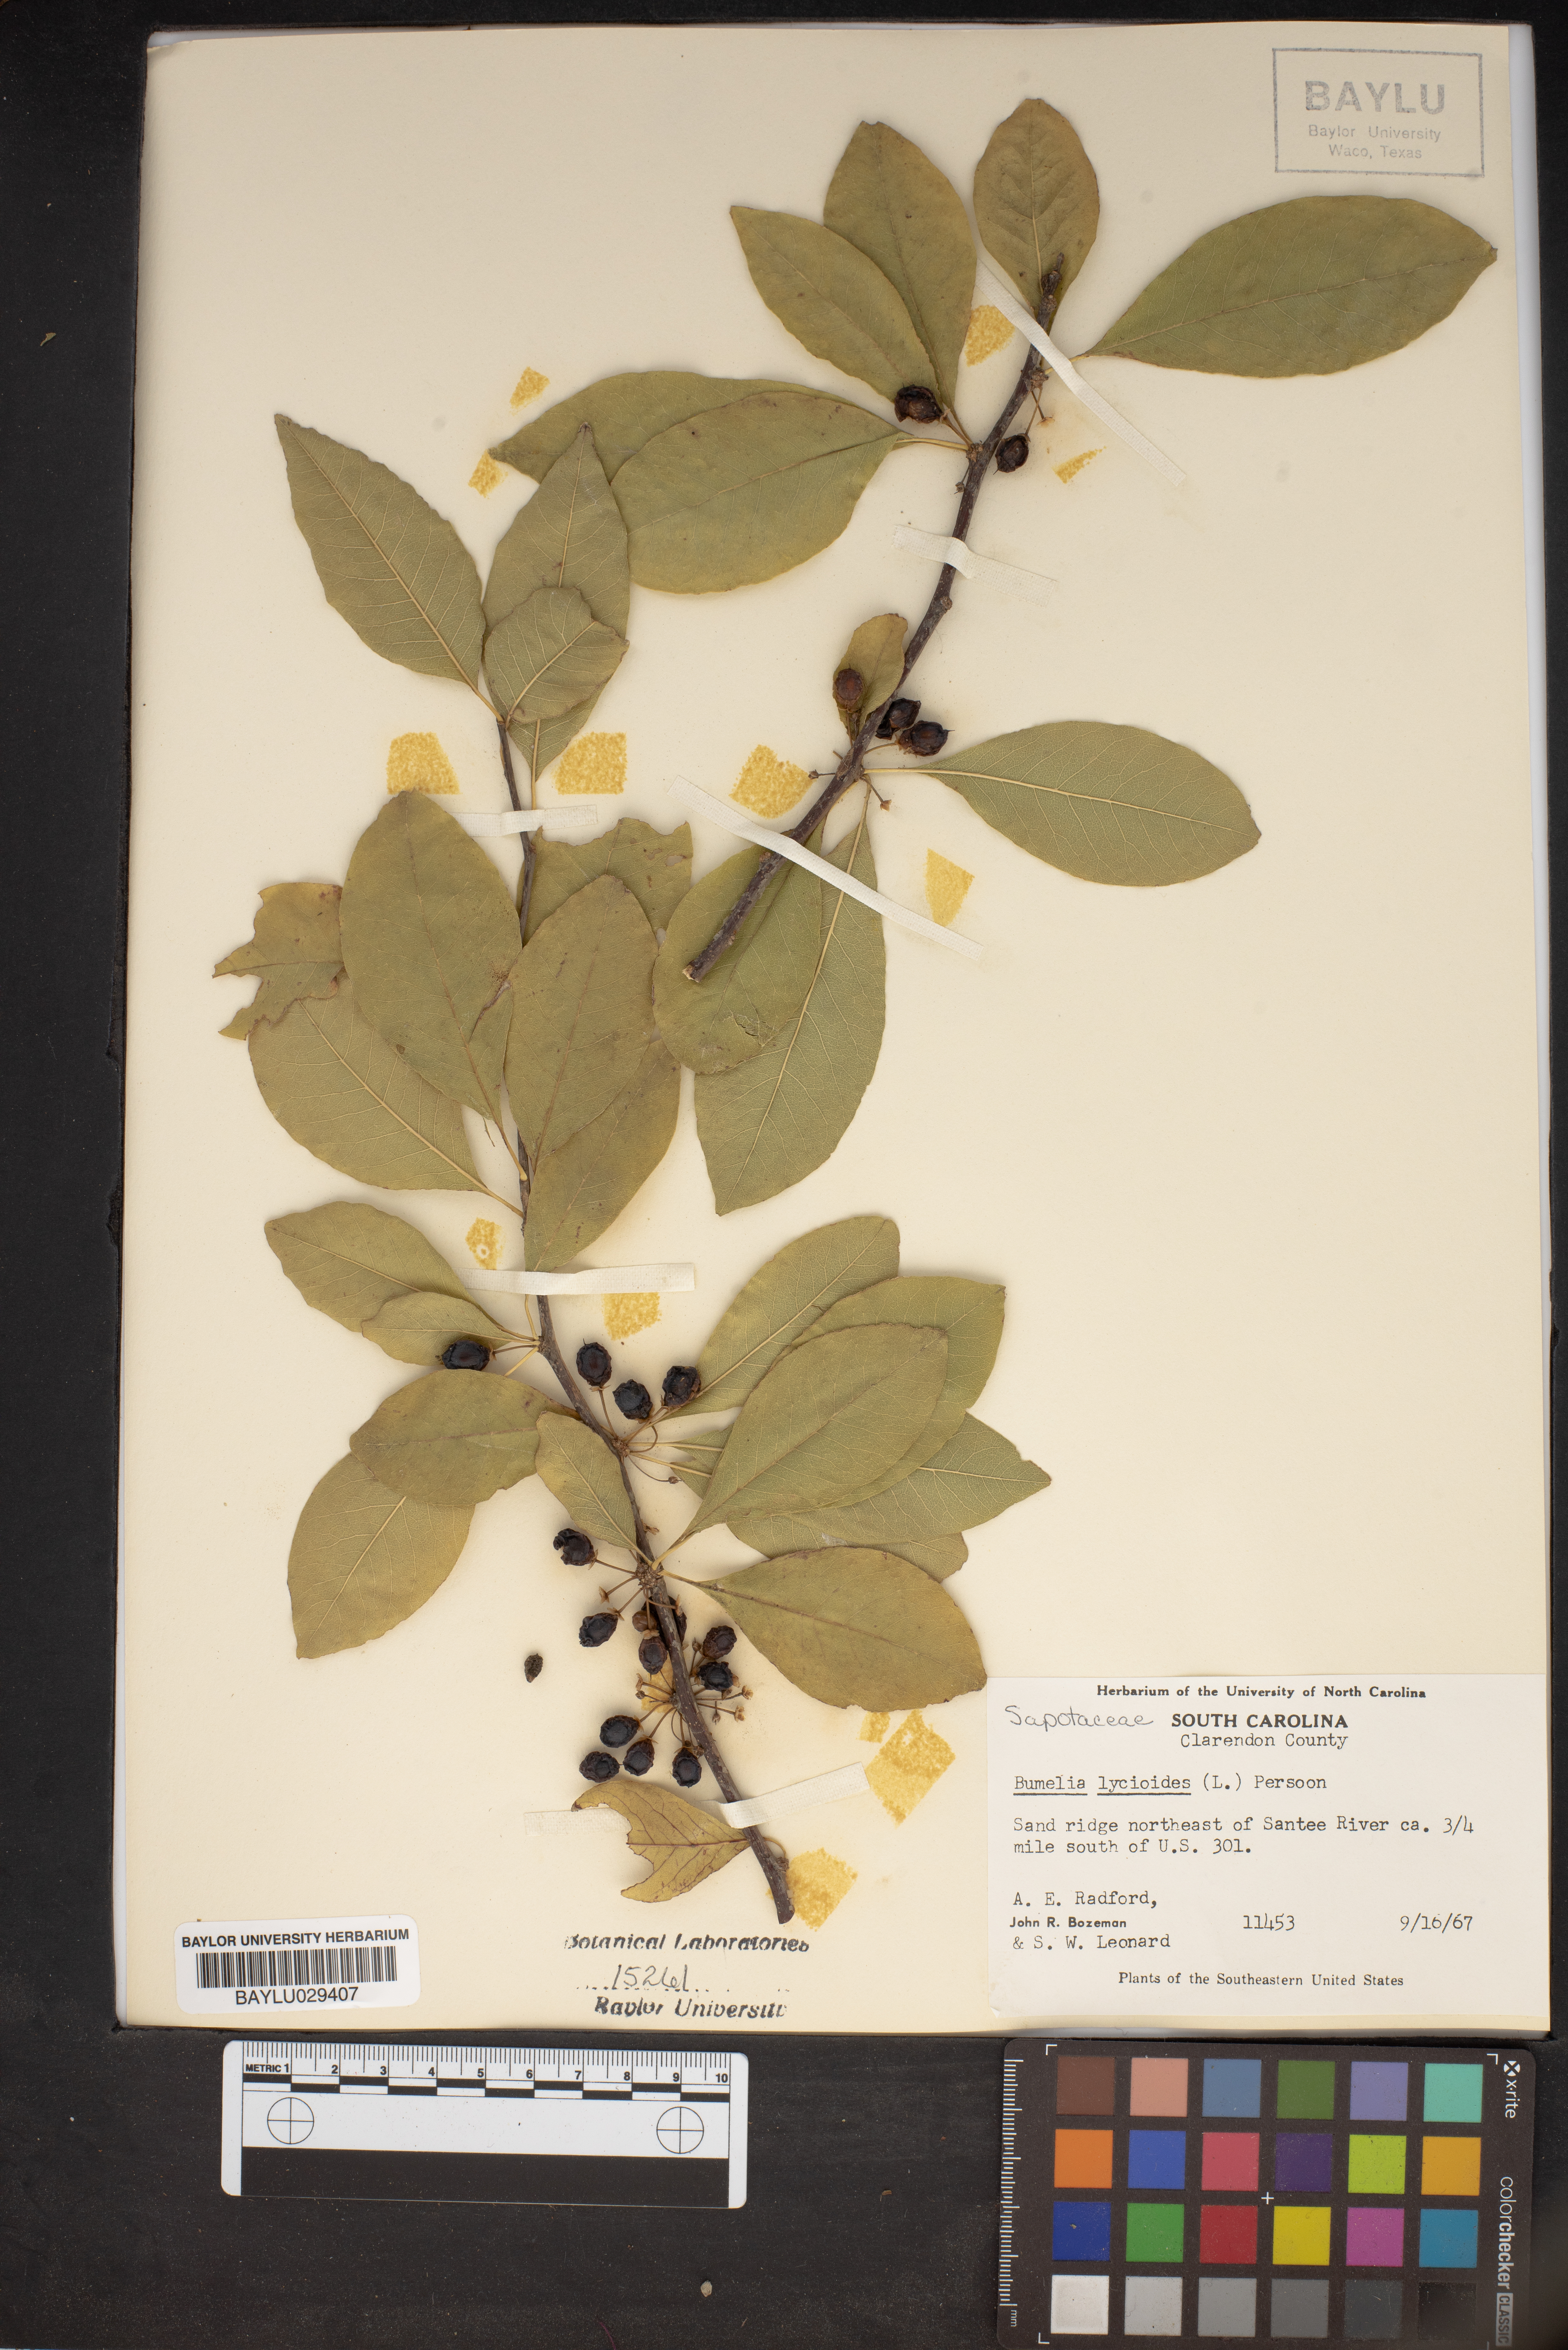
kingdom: Plantae
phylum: Tracheophyta
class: Magnoliopsida
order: Ericales
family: Sapotaceae
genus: Sideroxylon
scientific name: Sideroxylon lycioides
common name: Buckthorn bumelia
